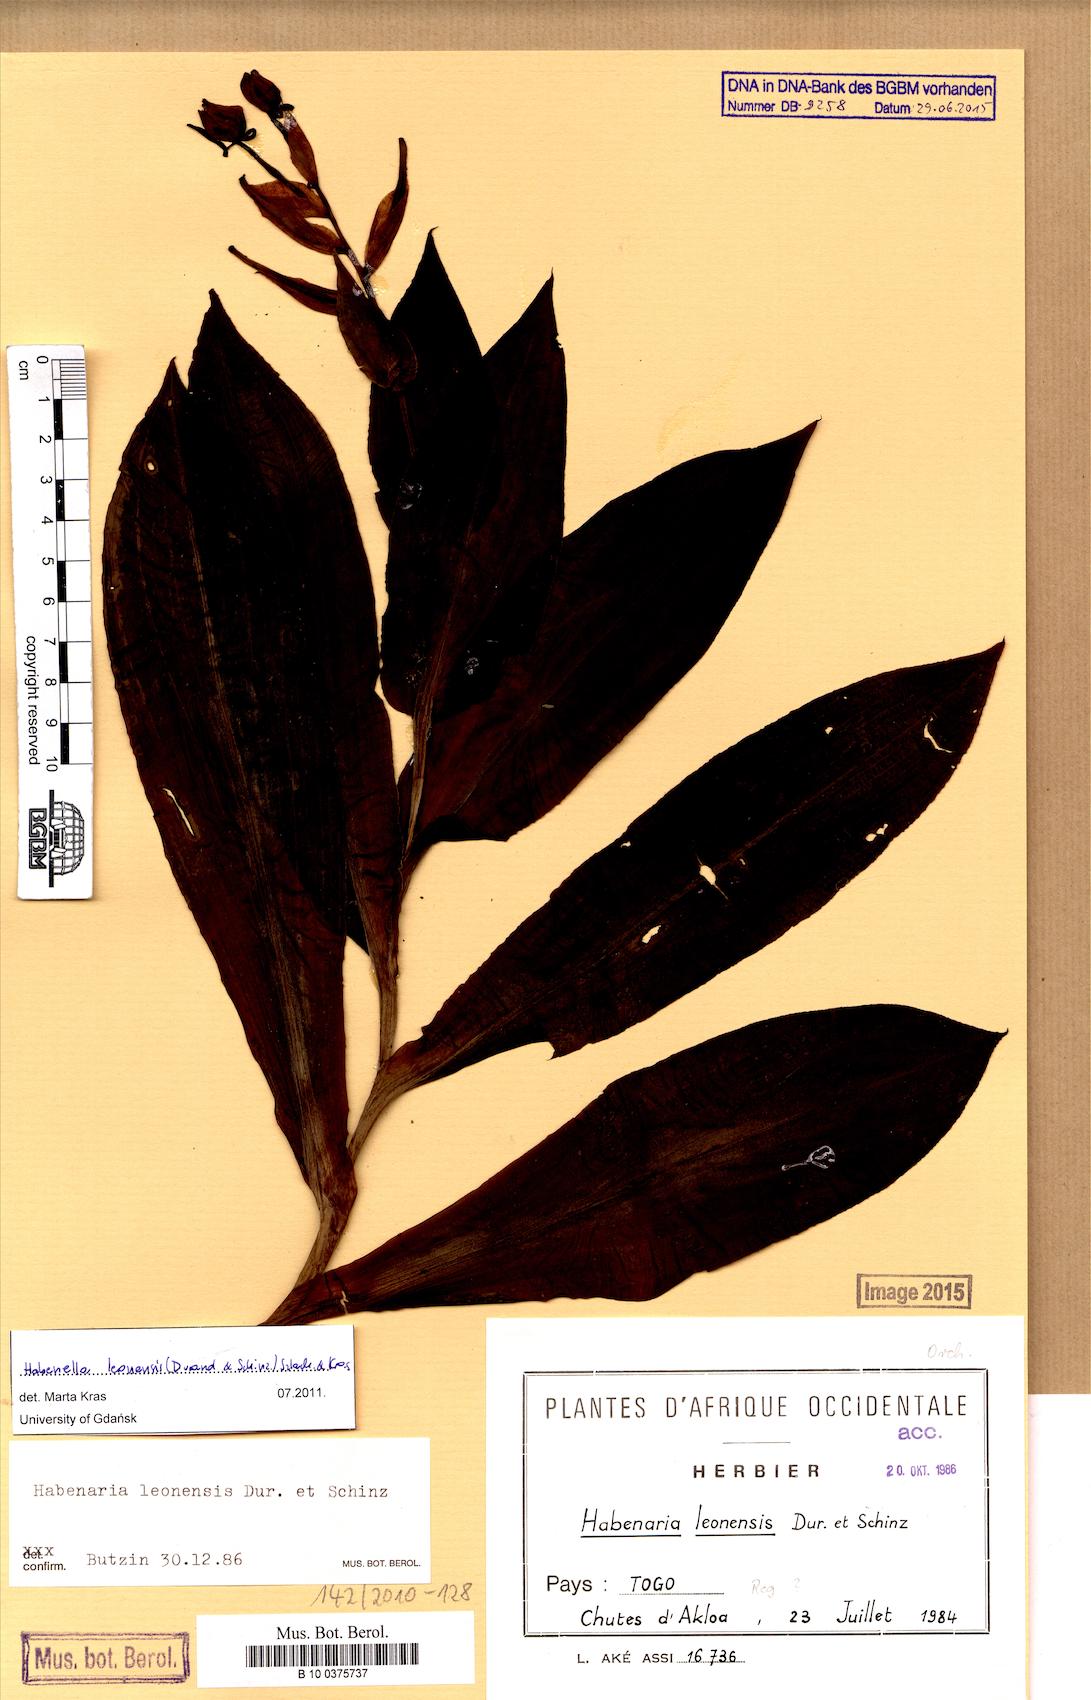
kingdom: Plantae
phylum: Tracheophyta
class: Liliopsida
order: Asparagales
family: Orchidaceae
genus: Habenaria
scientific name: Habenaria leonensis
